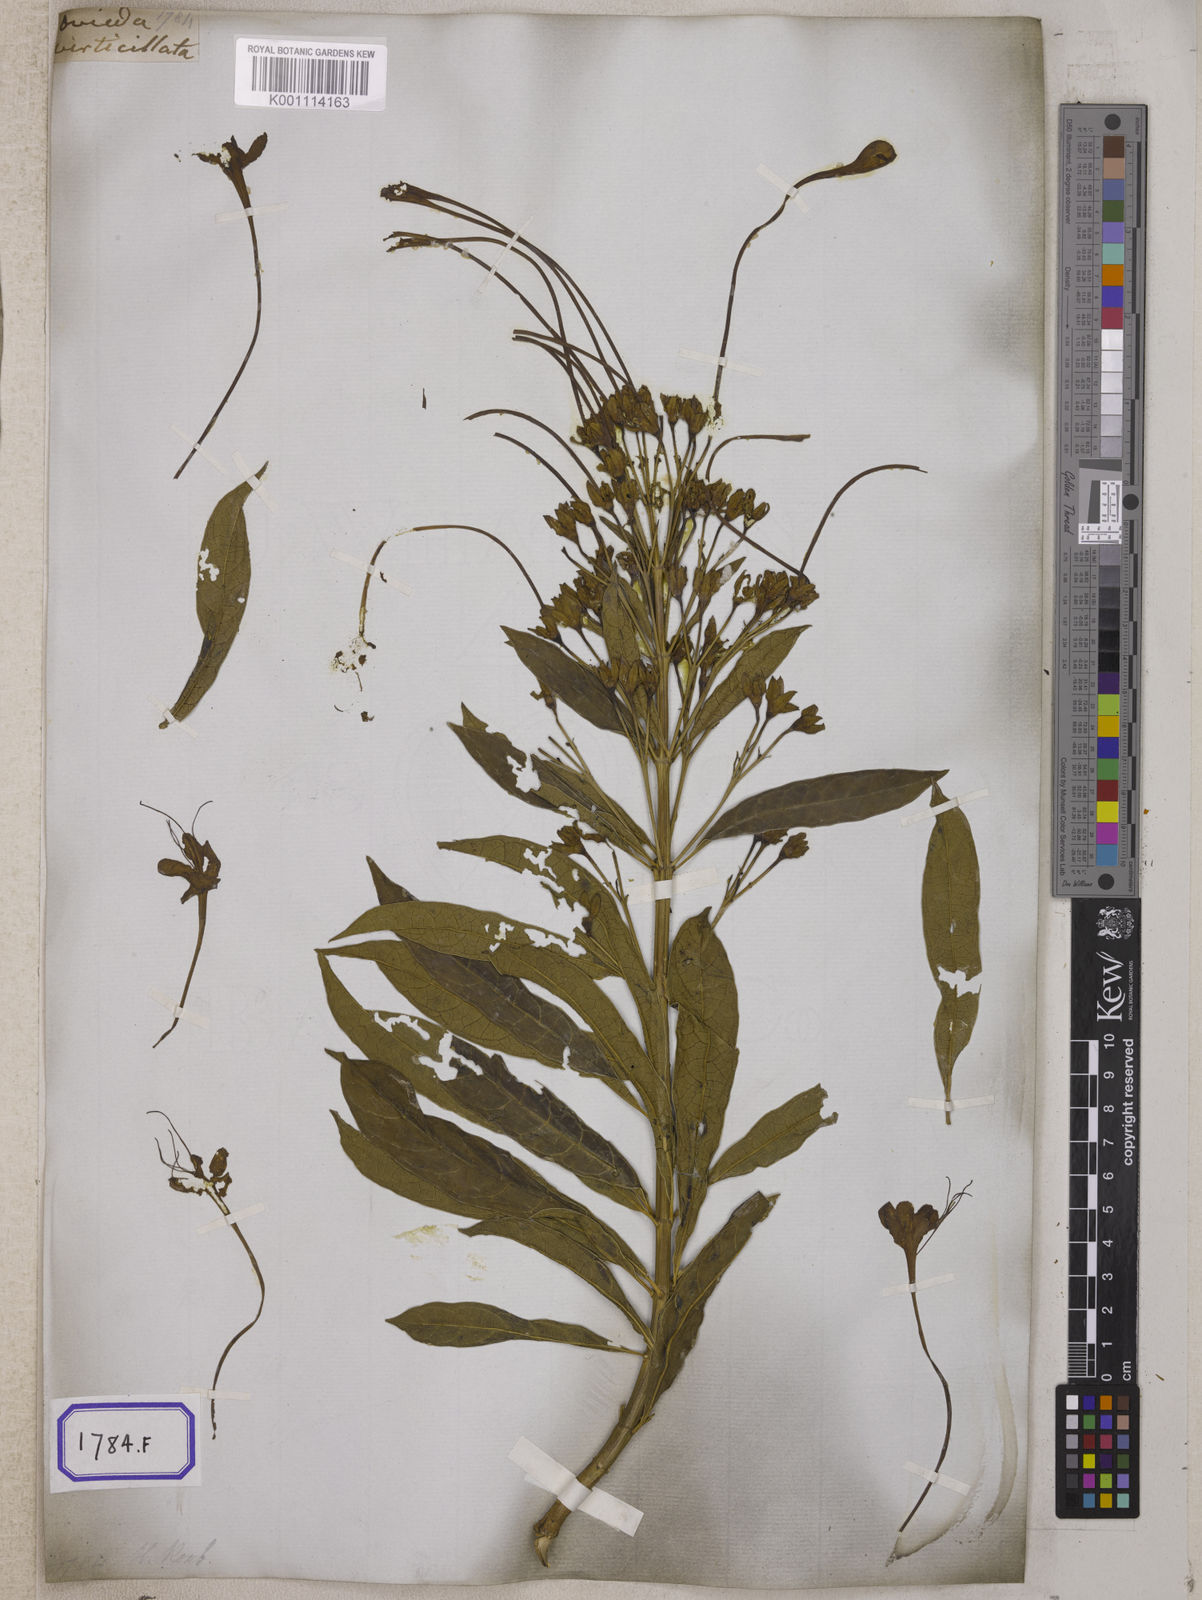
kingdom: Plantae
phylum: Tracheophyta
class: Magnoliopsida
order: Lamiales
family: Lamiaceae
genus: Clerodendrum
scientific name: Clerodendrum indicum
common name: Turk's turbin
